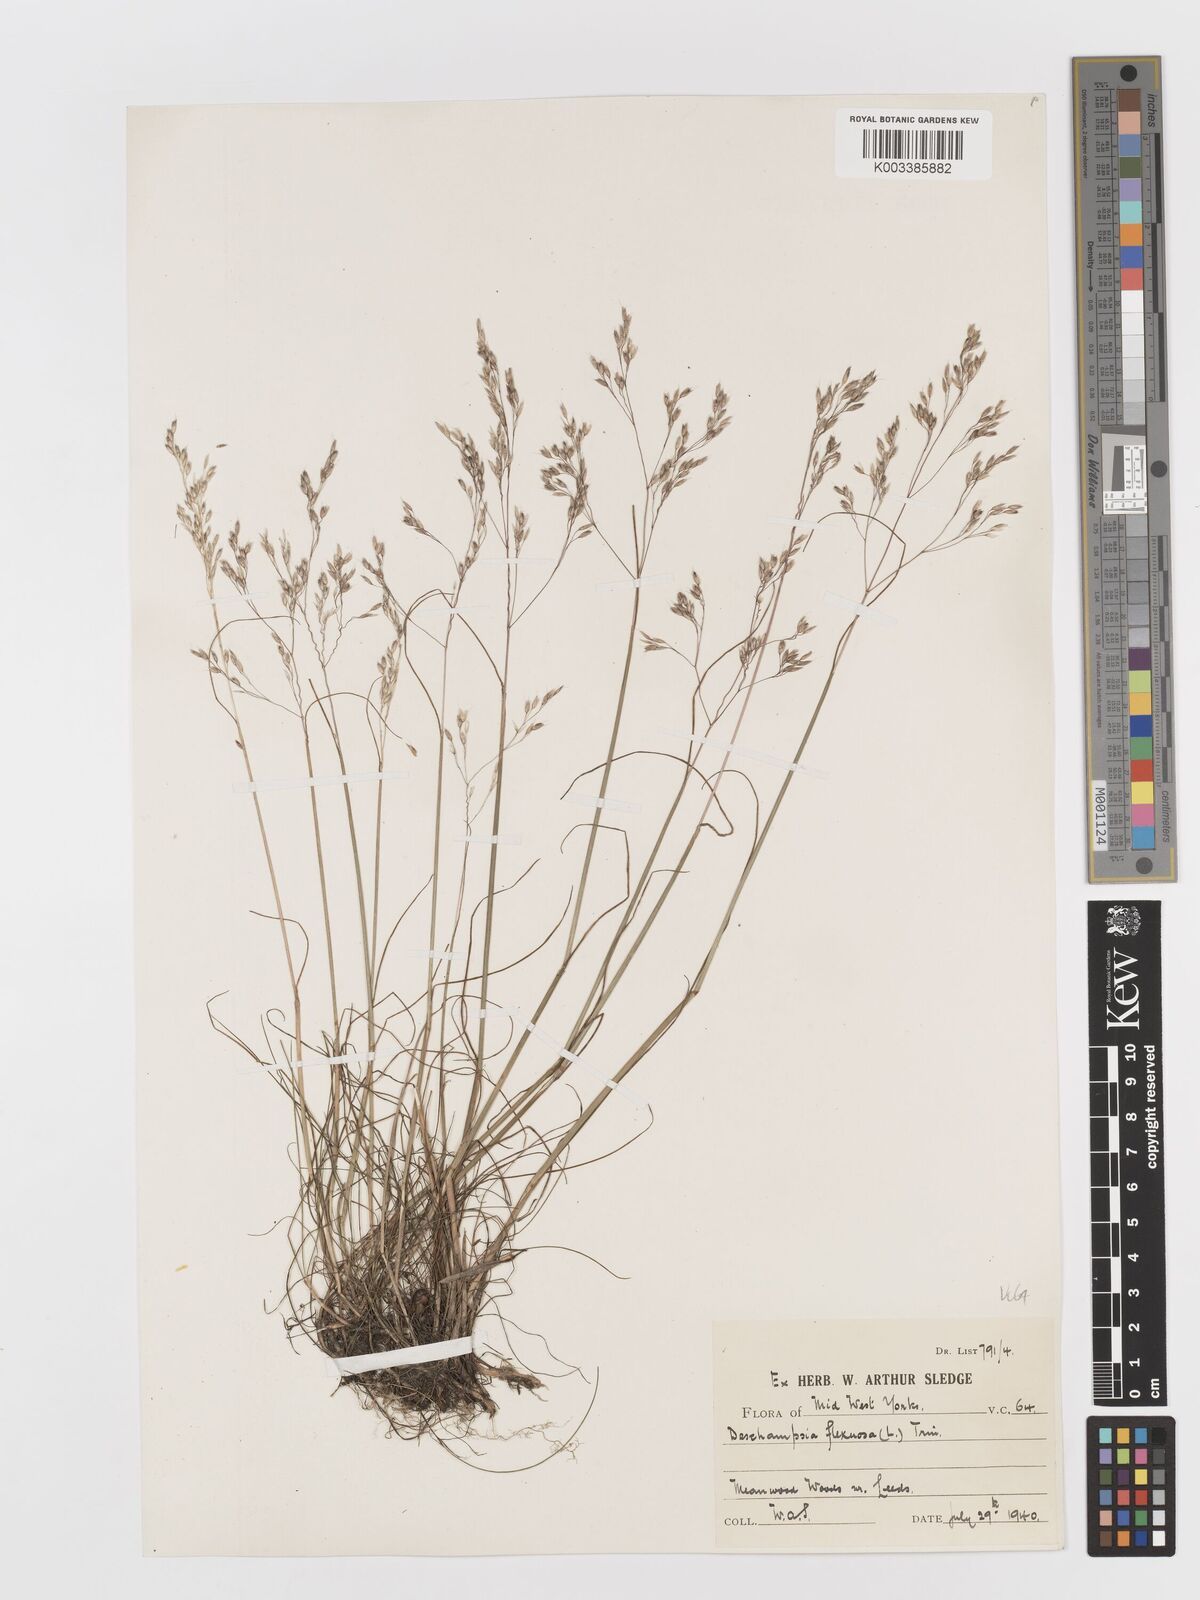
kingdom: Plantae
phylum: Tracheophyta
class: Liliopsida
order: Poales
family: Poaceae
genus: Avenella
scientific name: Avenella flexuosa
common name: Wavy hairgrass
